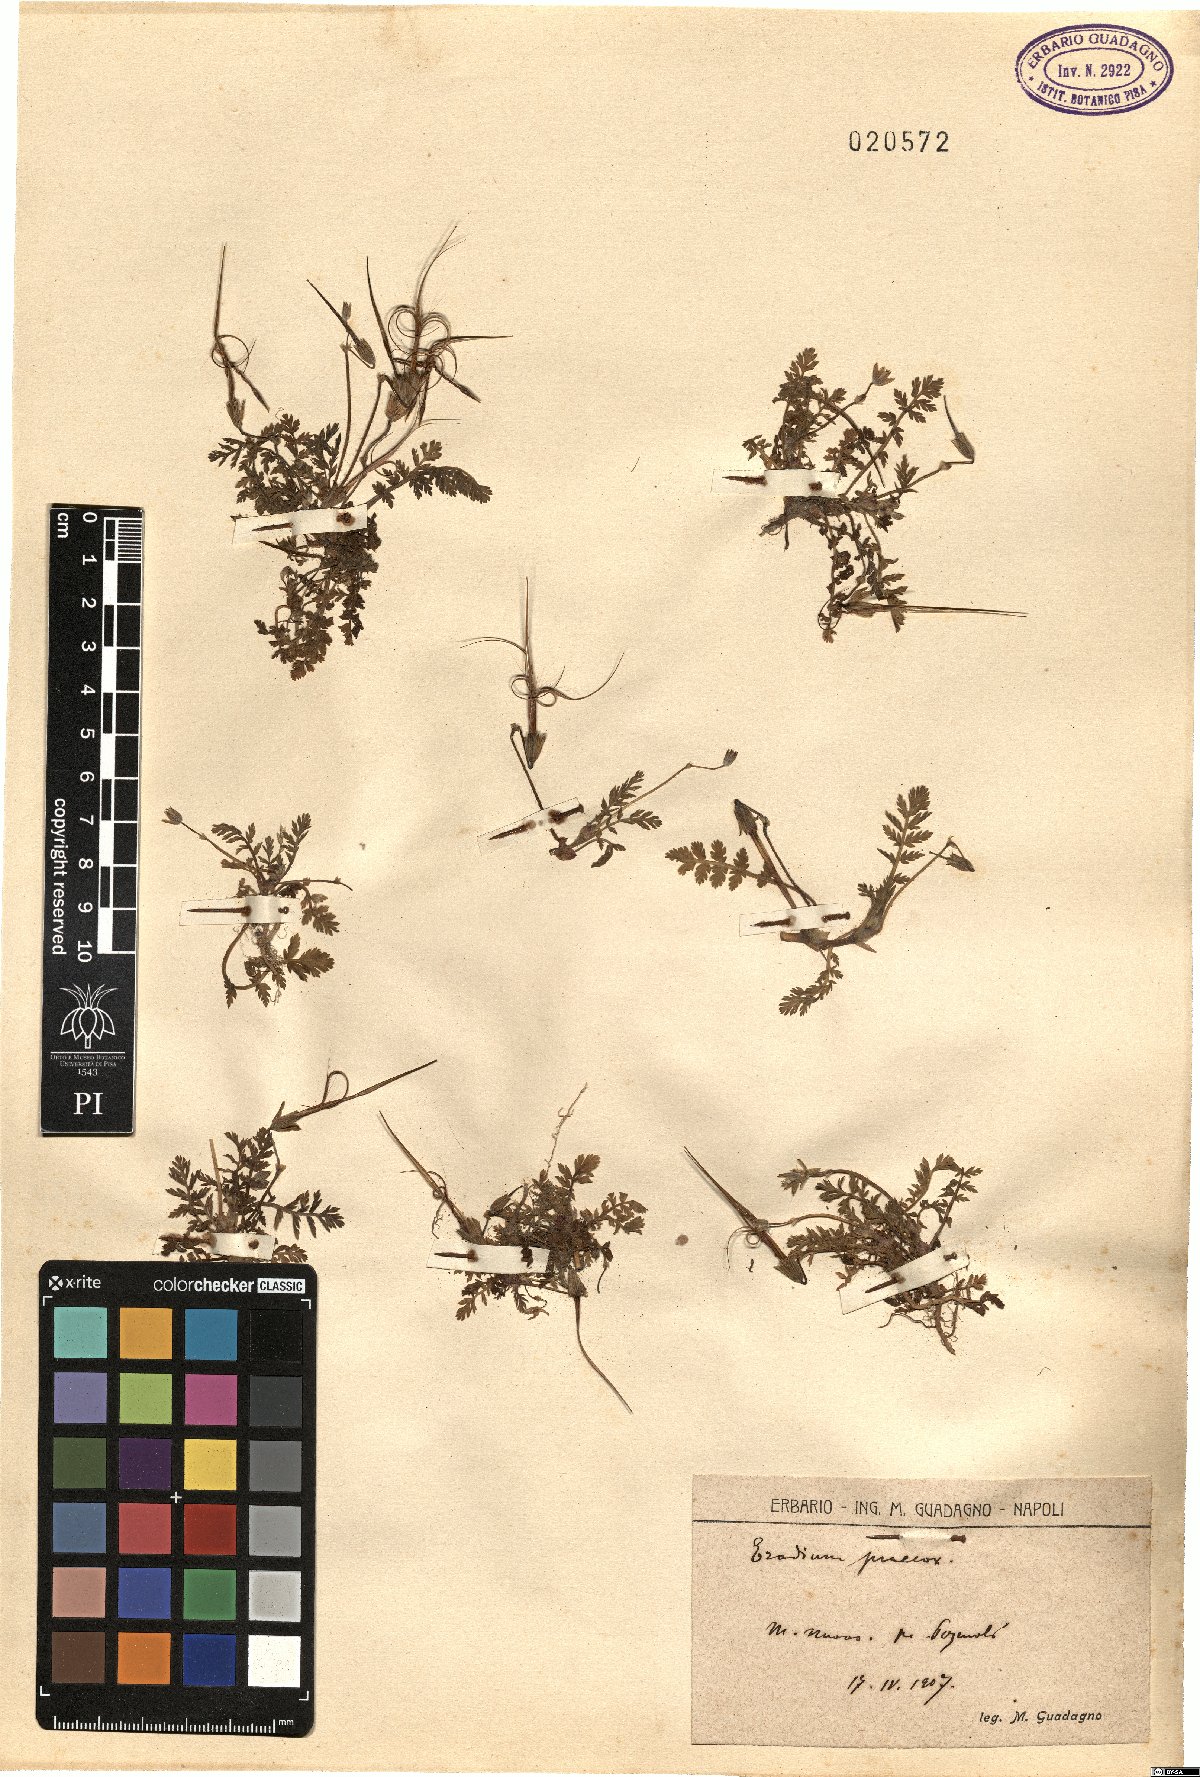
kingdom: Plantae
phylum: Tracheophyta
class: Magnoliopsida
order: Geraniales
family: Geraniaceae
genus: Erodium
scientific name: Erodium cicutarium
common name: Common stork's-bill
